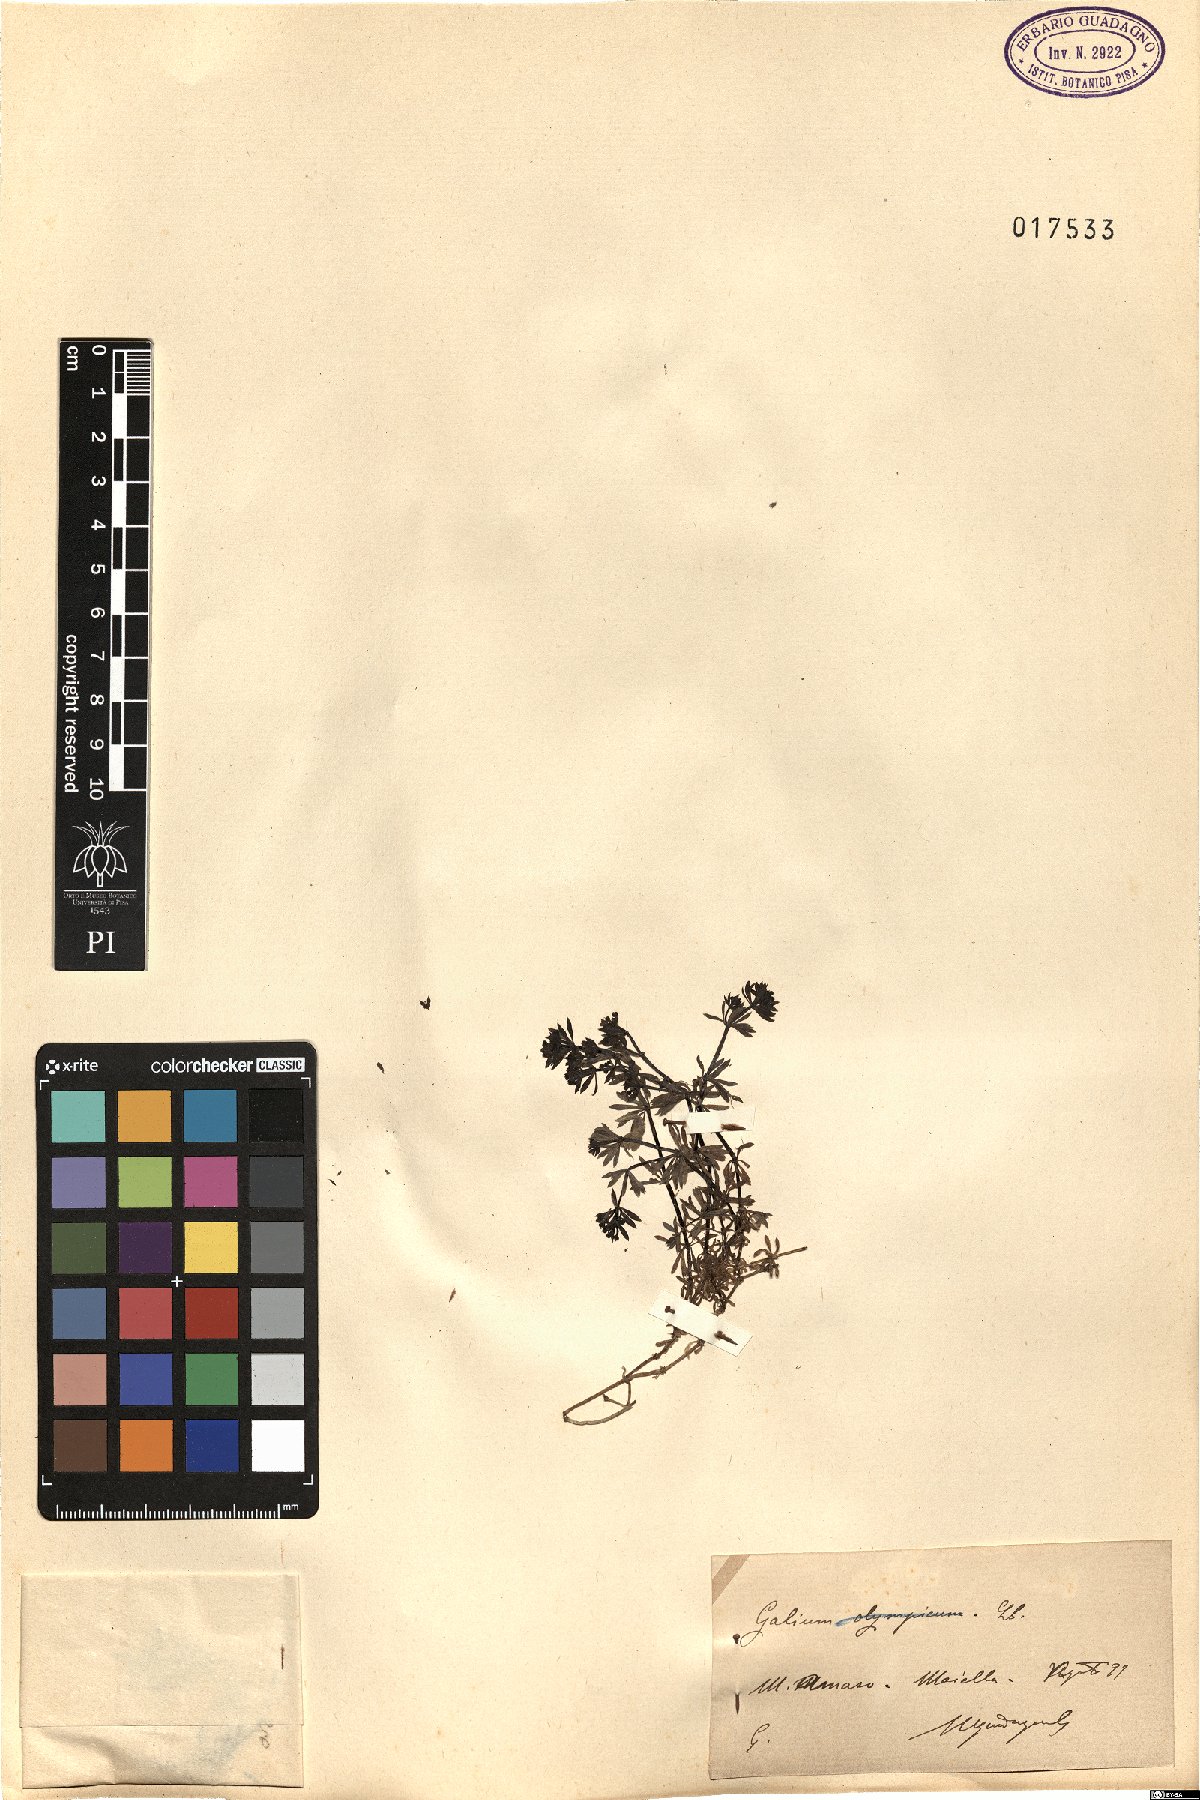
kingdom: Plantae
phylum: Tracheophyta
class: Magnoliopsida
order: Gentianales
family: Rubiaceae
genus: Galium
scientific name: Galium
